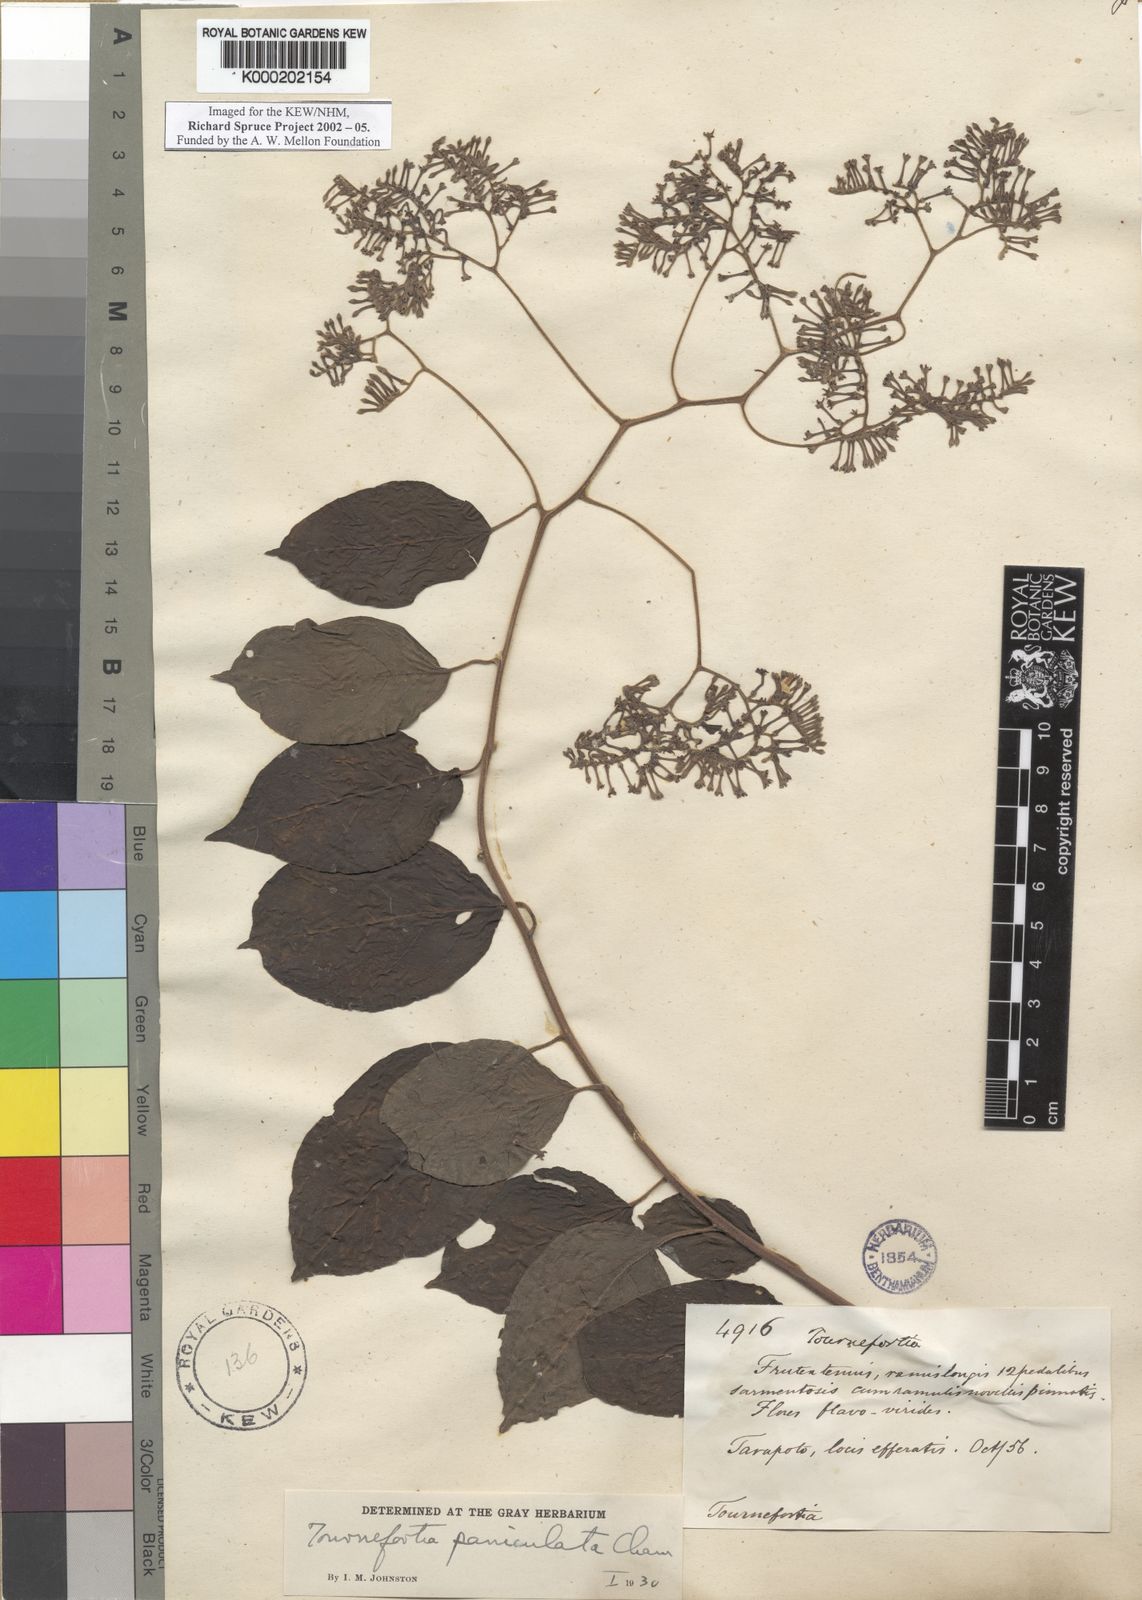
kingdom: Plantae
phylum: Tracheophyta
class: Magnoliopsida
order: Boraginales
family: Heliotropiaceae
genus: Myriopus
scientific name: Myriopus paniculatus
